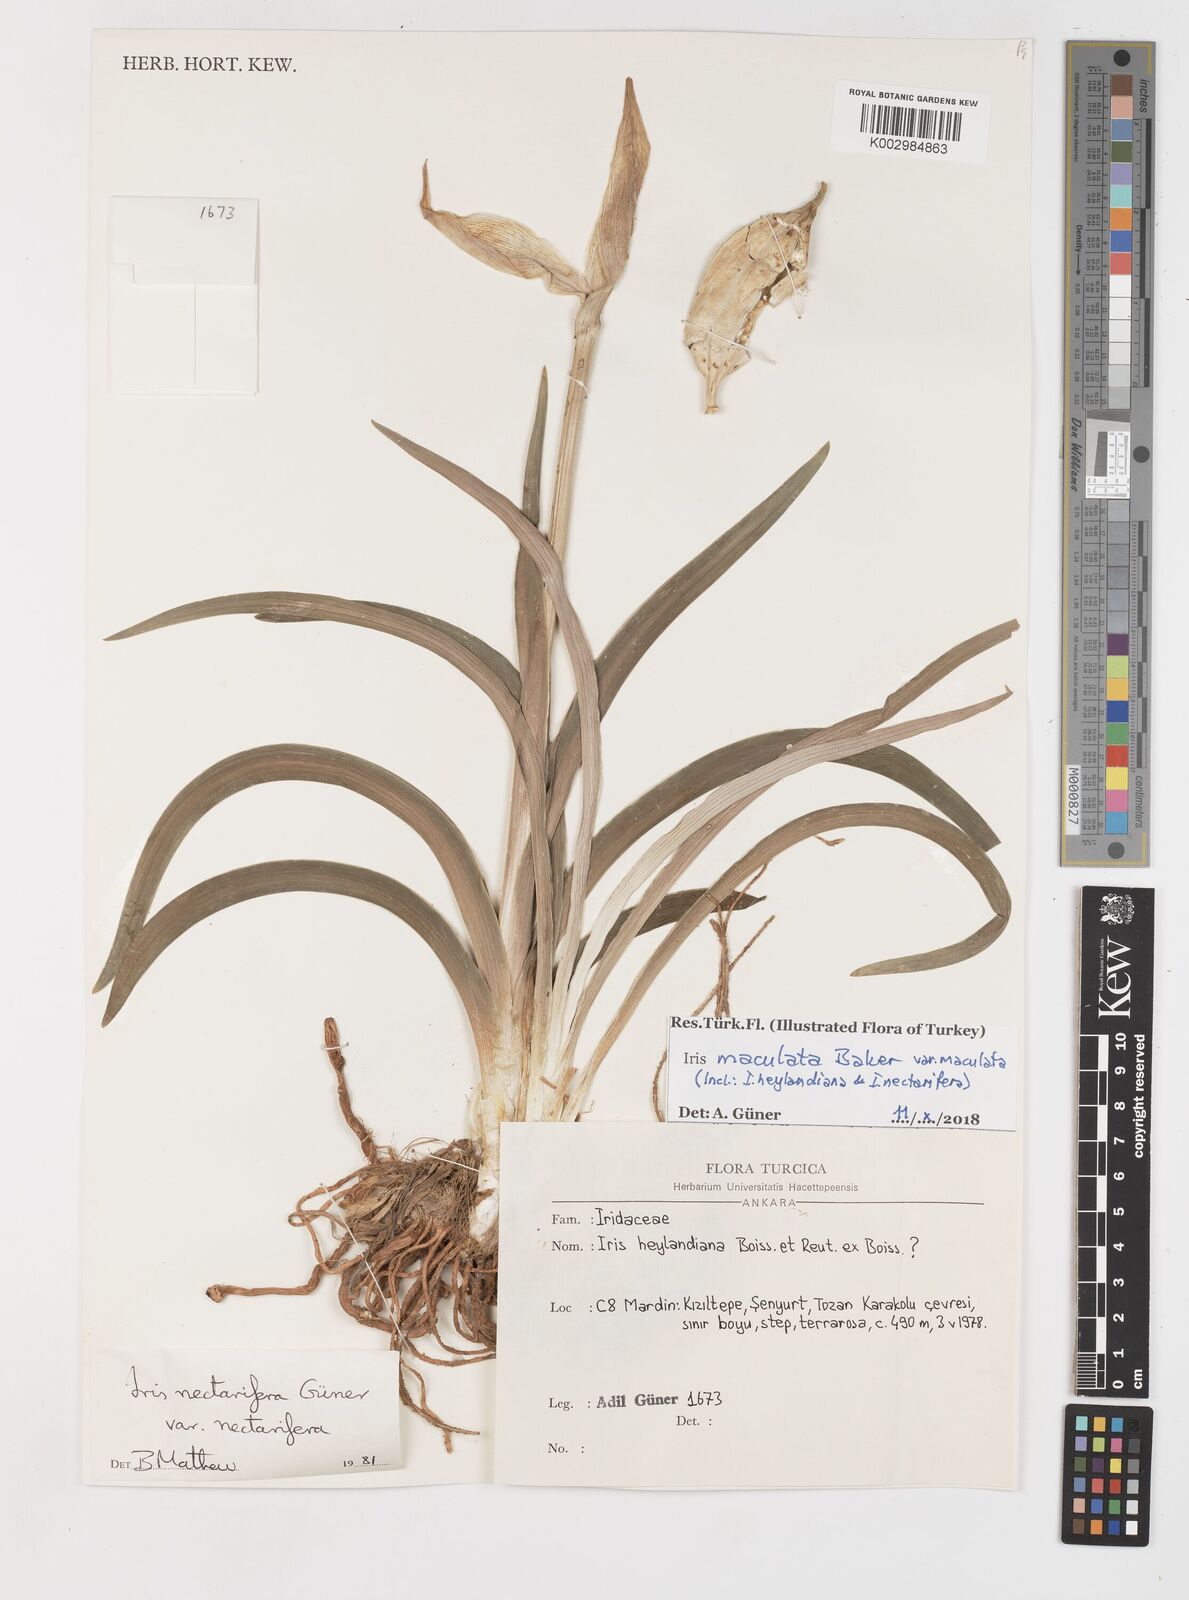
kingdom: Plantae
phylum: Tracheophyta
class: Liliopsida
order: Asparagales
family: Iridaceae
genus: Iris
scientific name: Iris maculata
